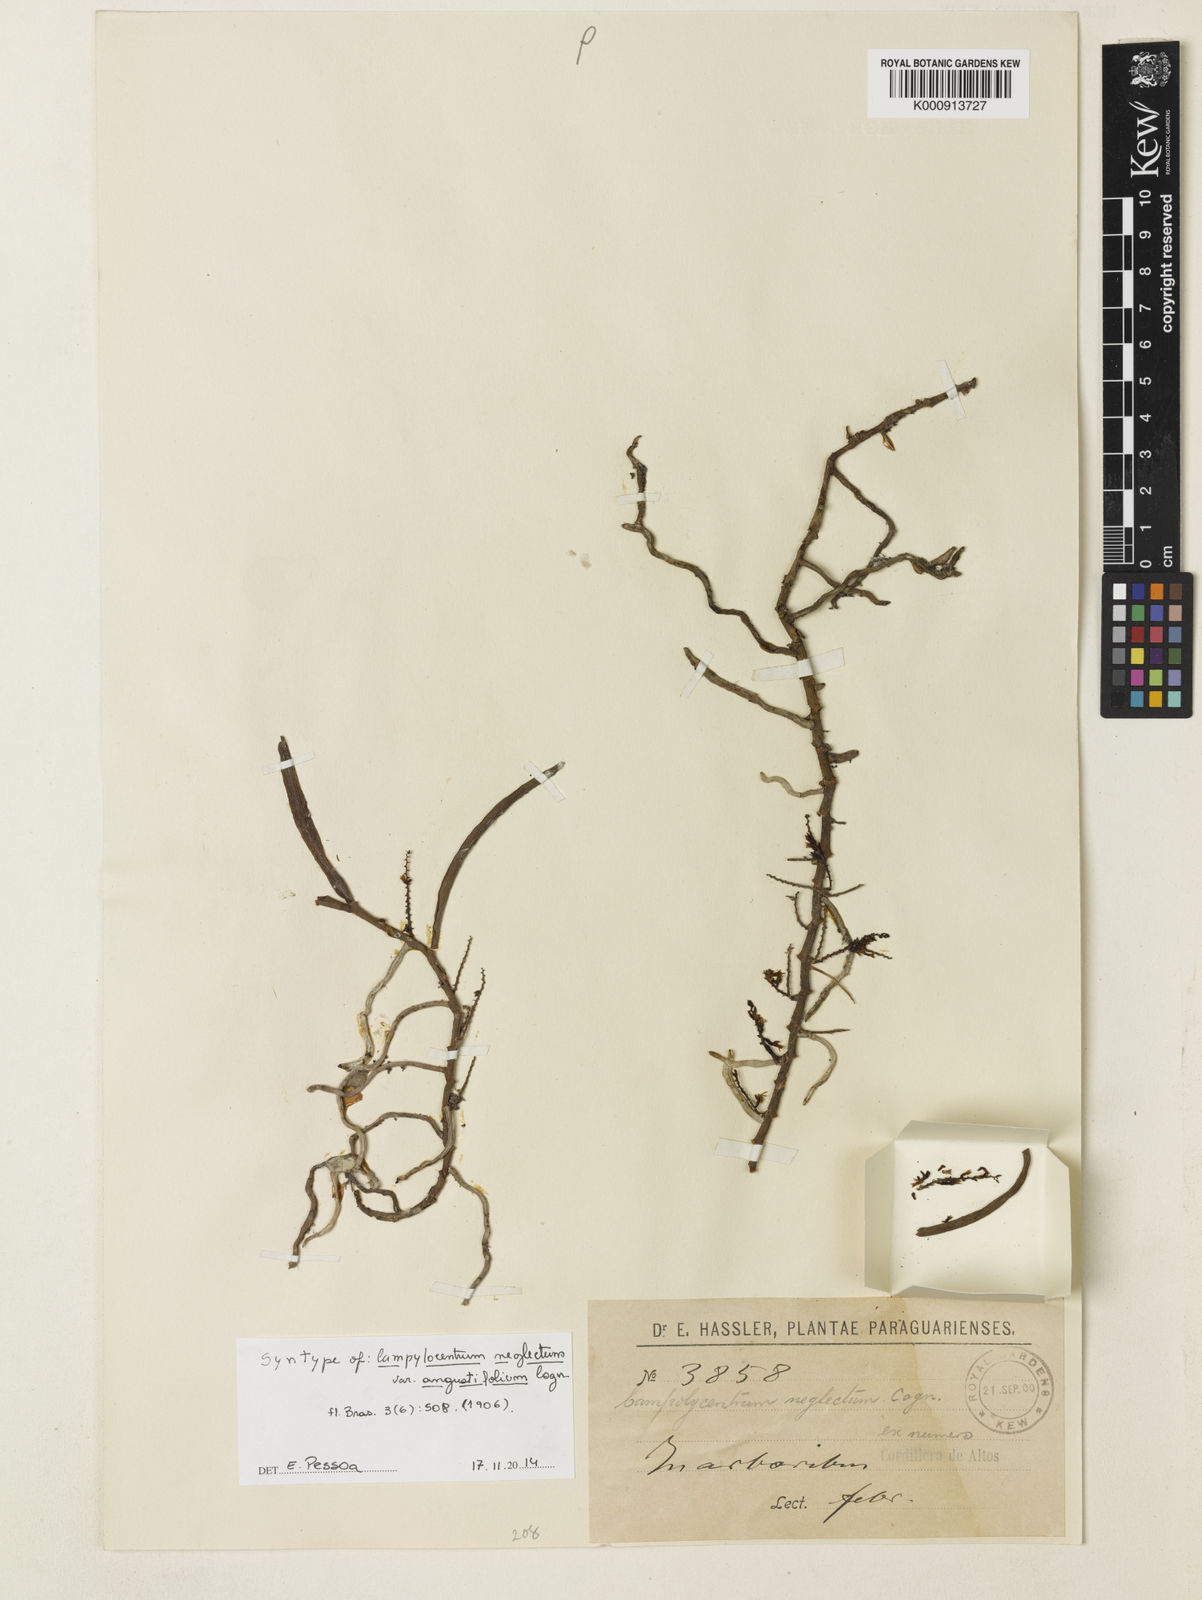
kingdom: Plantae
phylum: Tracheophyta
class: Liliopsida
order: Asparagales
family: Orchidaceae
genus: Campylocentrum
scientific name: Campylocentrum neglectum
